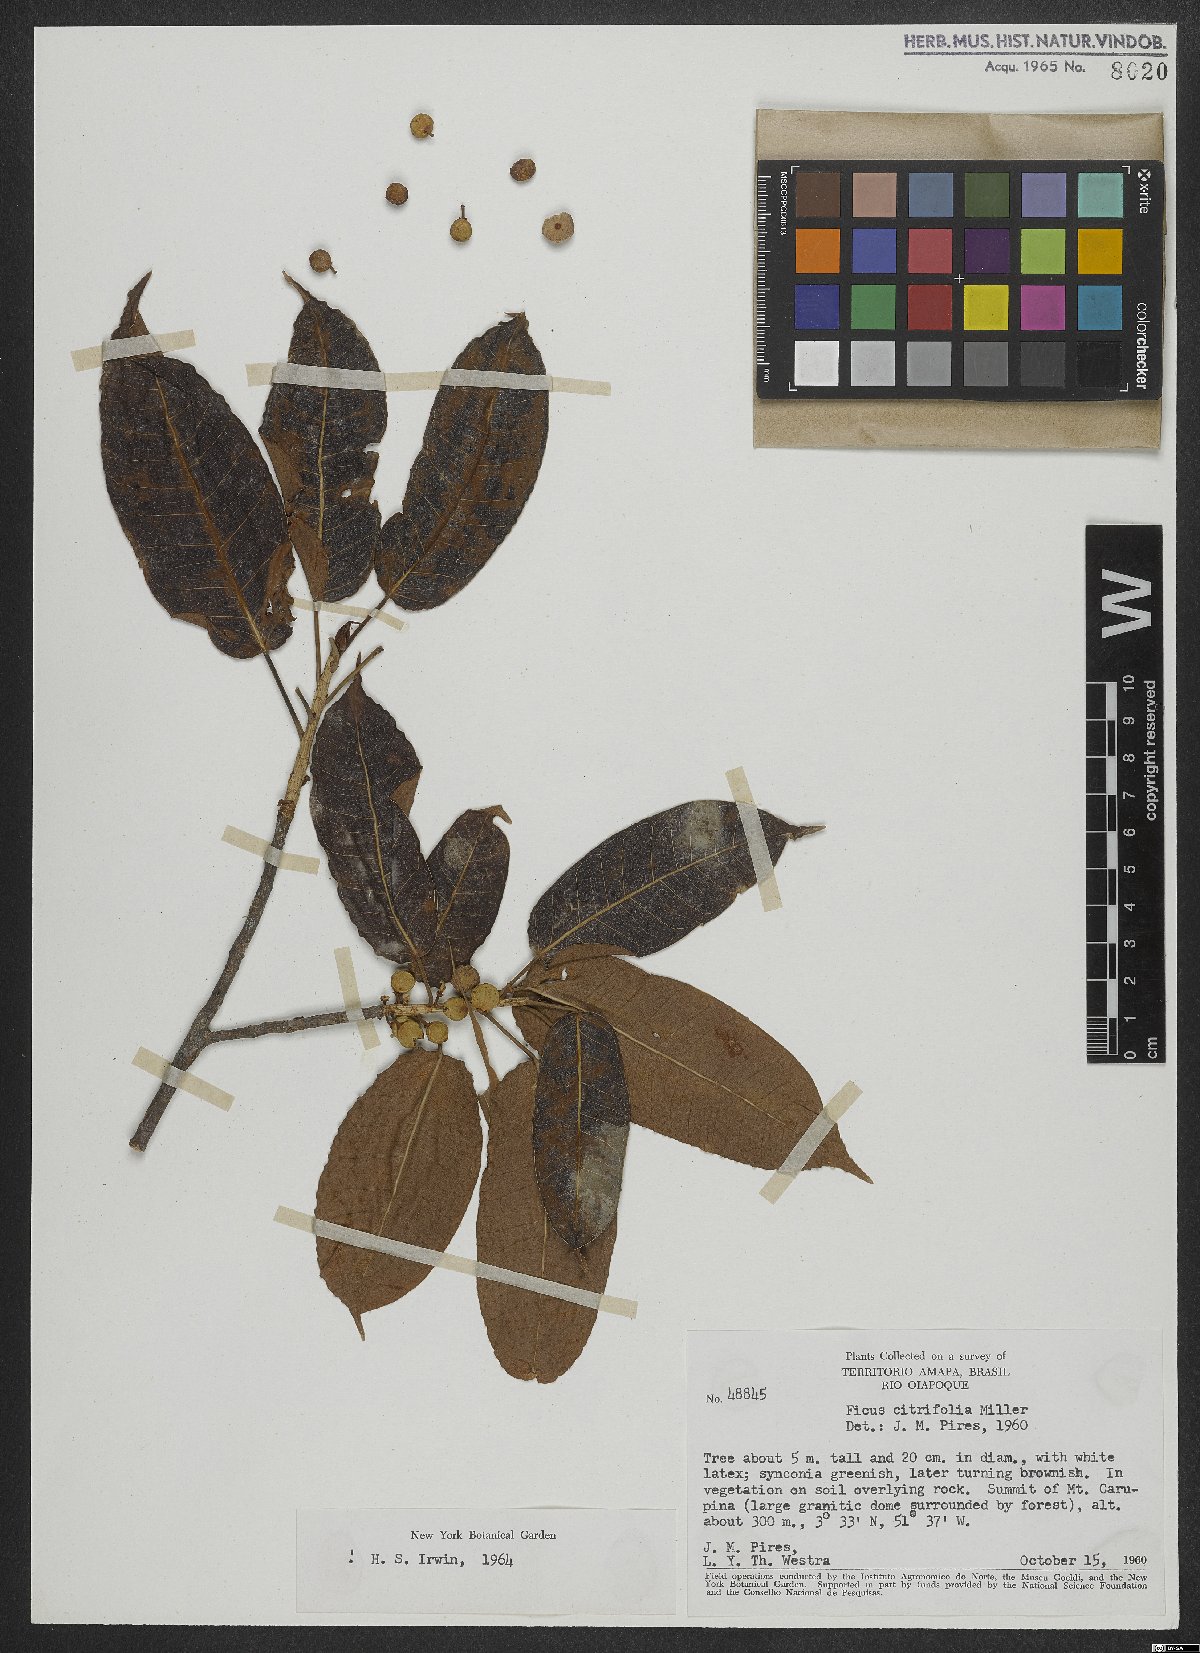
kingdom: Plantae
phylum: Tracheophyta
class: Magnoliopsida
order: Rosales
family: Moraceae
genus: Ficus
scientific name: Ficus citrifolia
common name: Strangler fig
